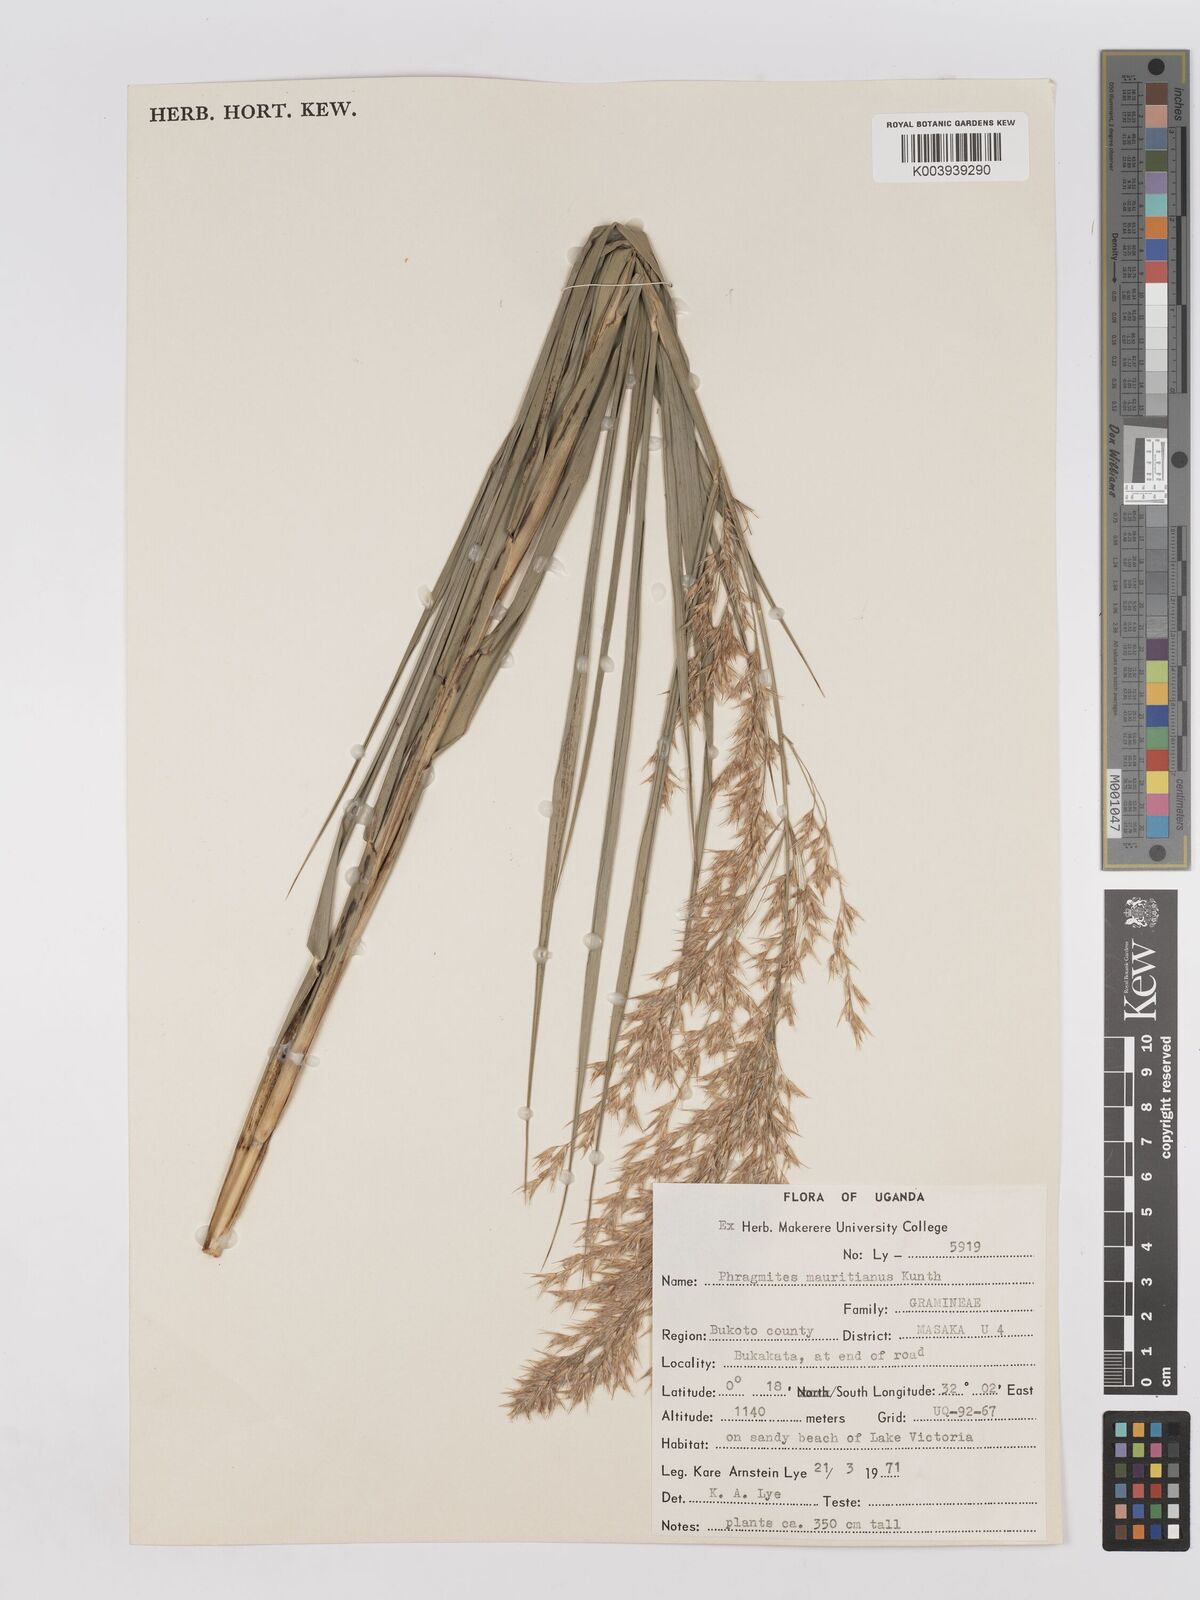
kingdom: Plantae
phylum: Tracheophyta
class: Liliopsida
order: Poales
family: Poaceae
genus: Phragmites
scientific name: Phragmites mauritianus
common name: Reed grass
